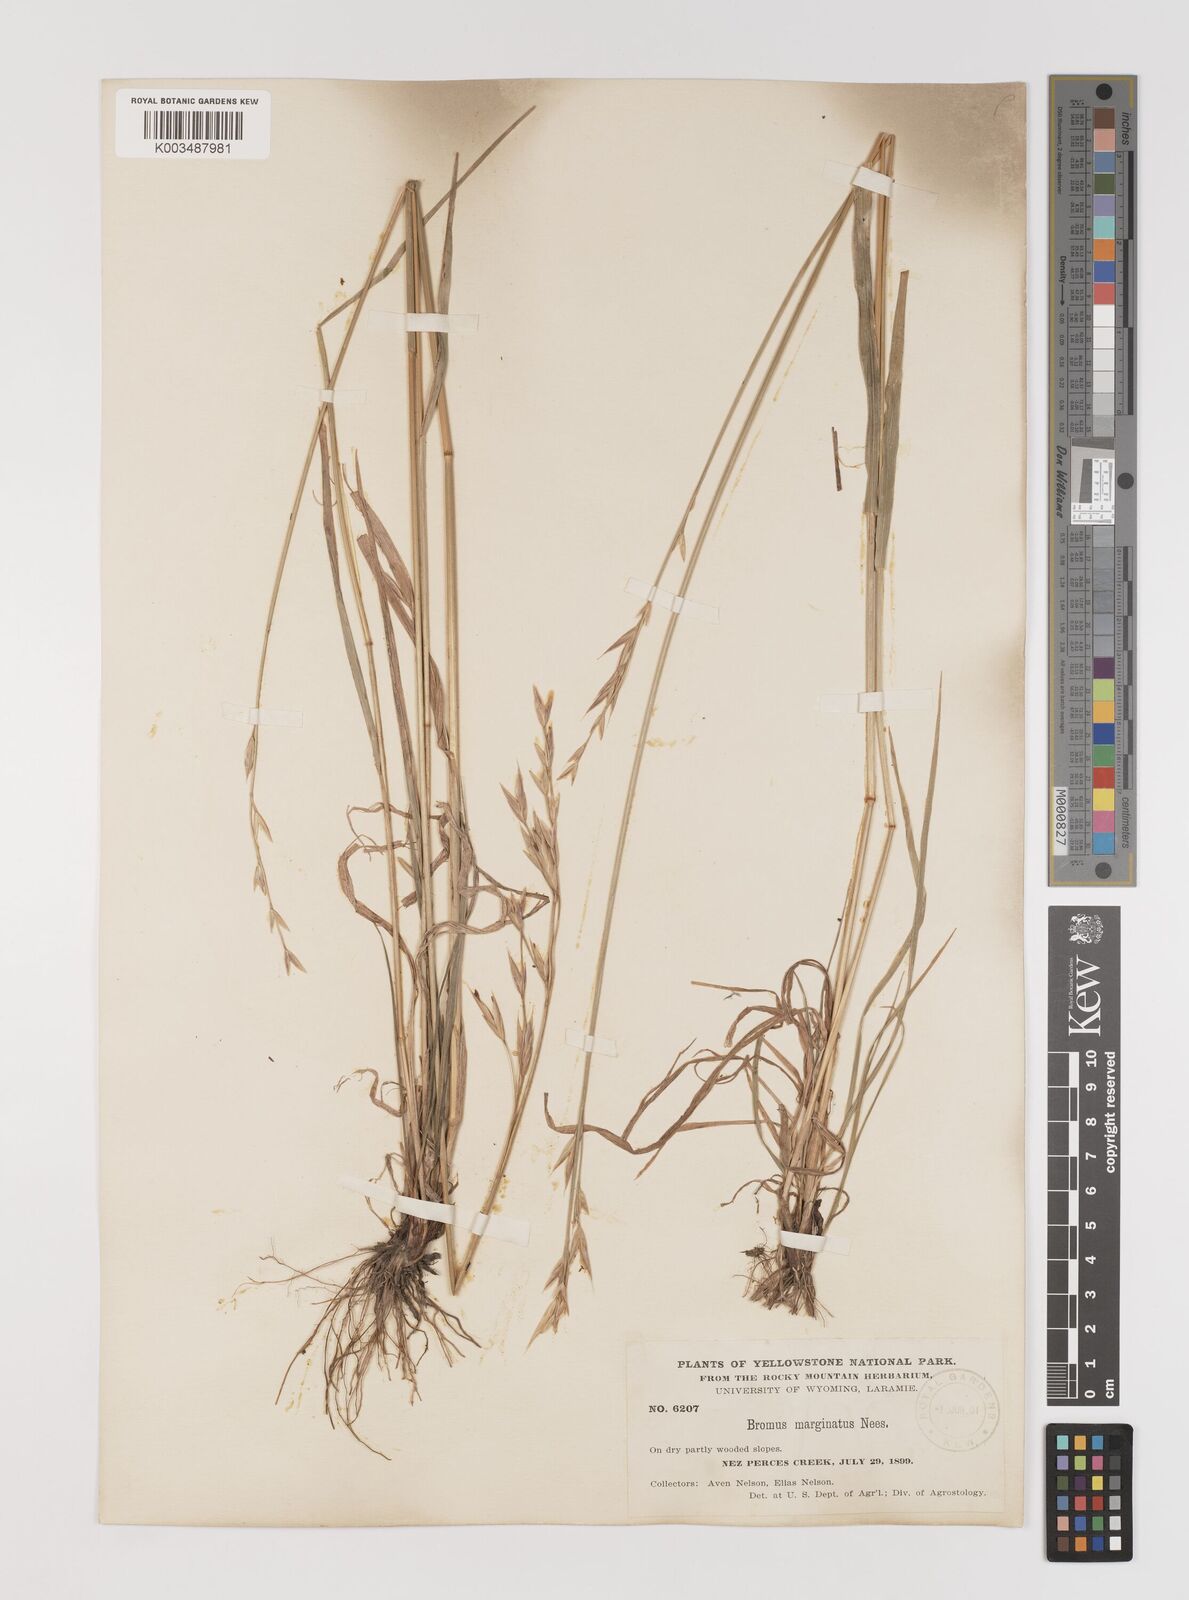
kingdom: Plantae
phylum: Tracheophyta
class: Liliopsida
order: Poales
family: Poaceae
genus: Bromus
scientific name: Bromus marginatus
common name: Western brome
